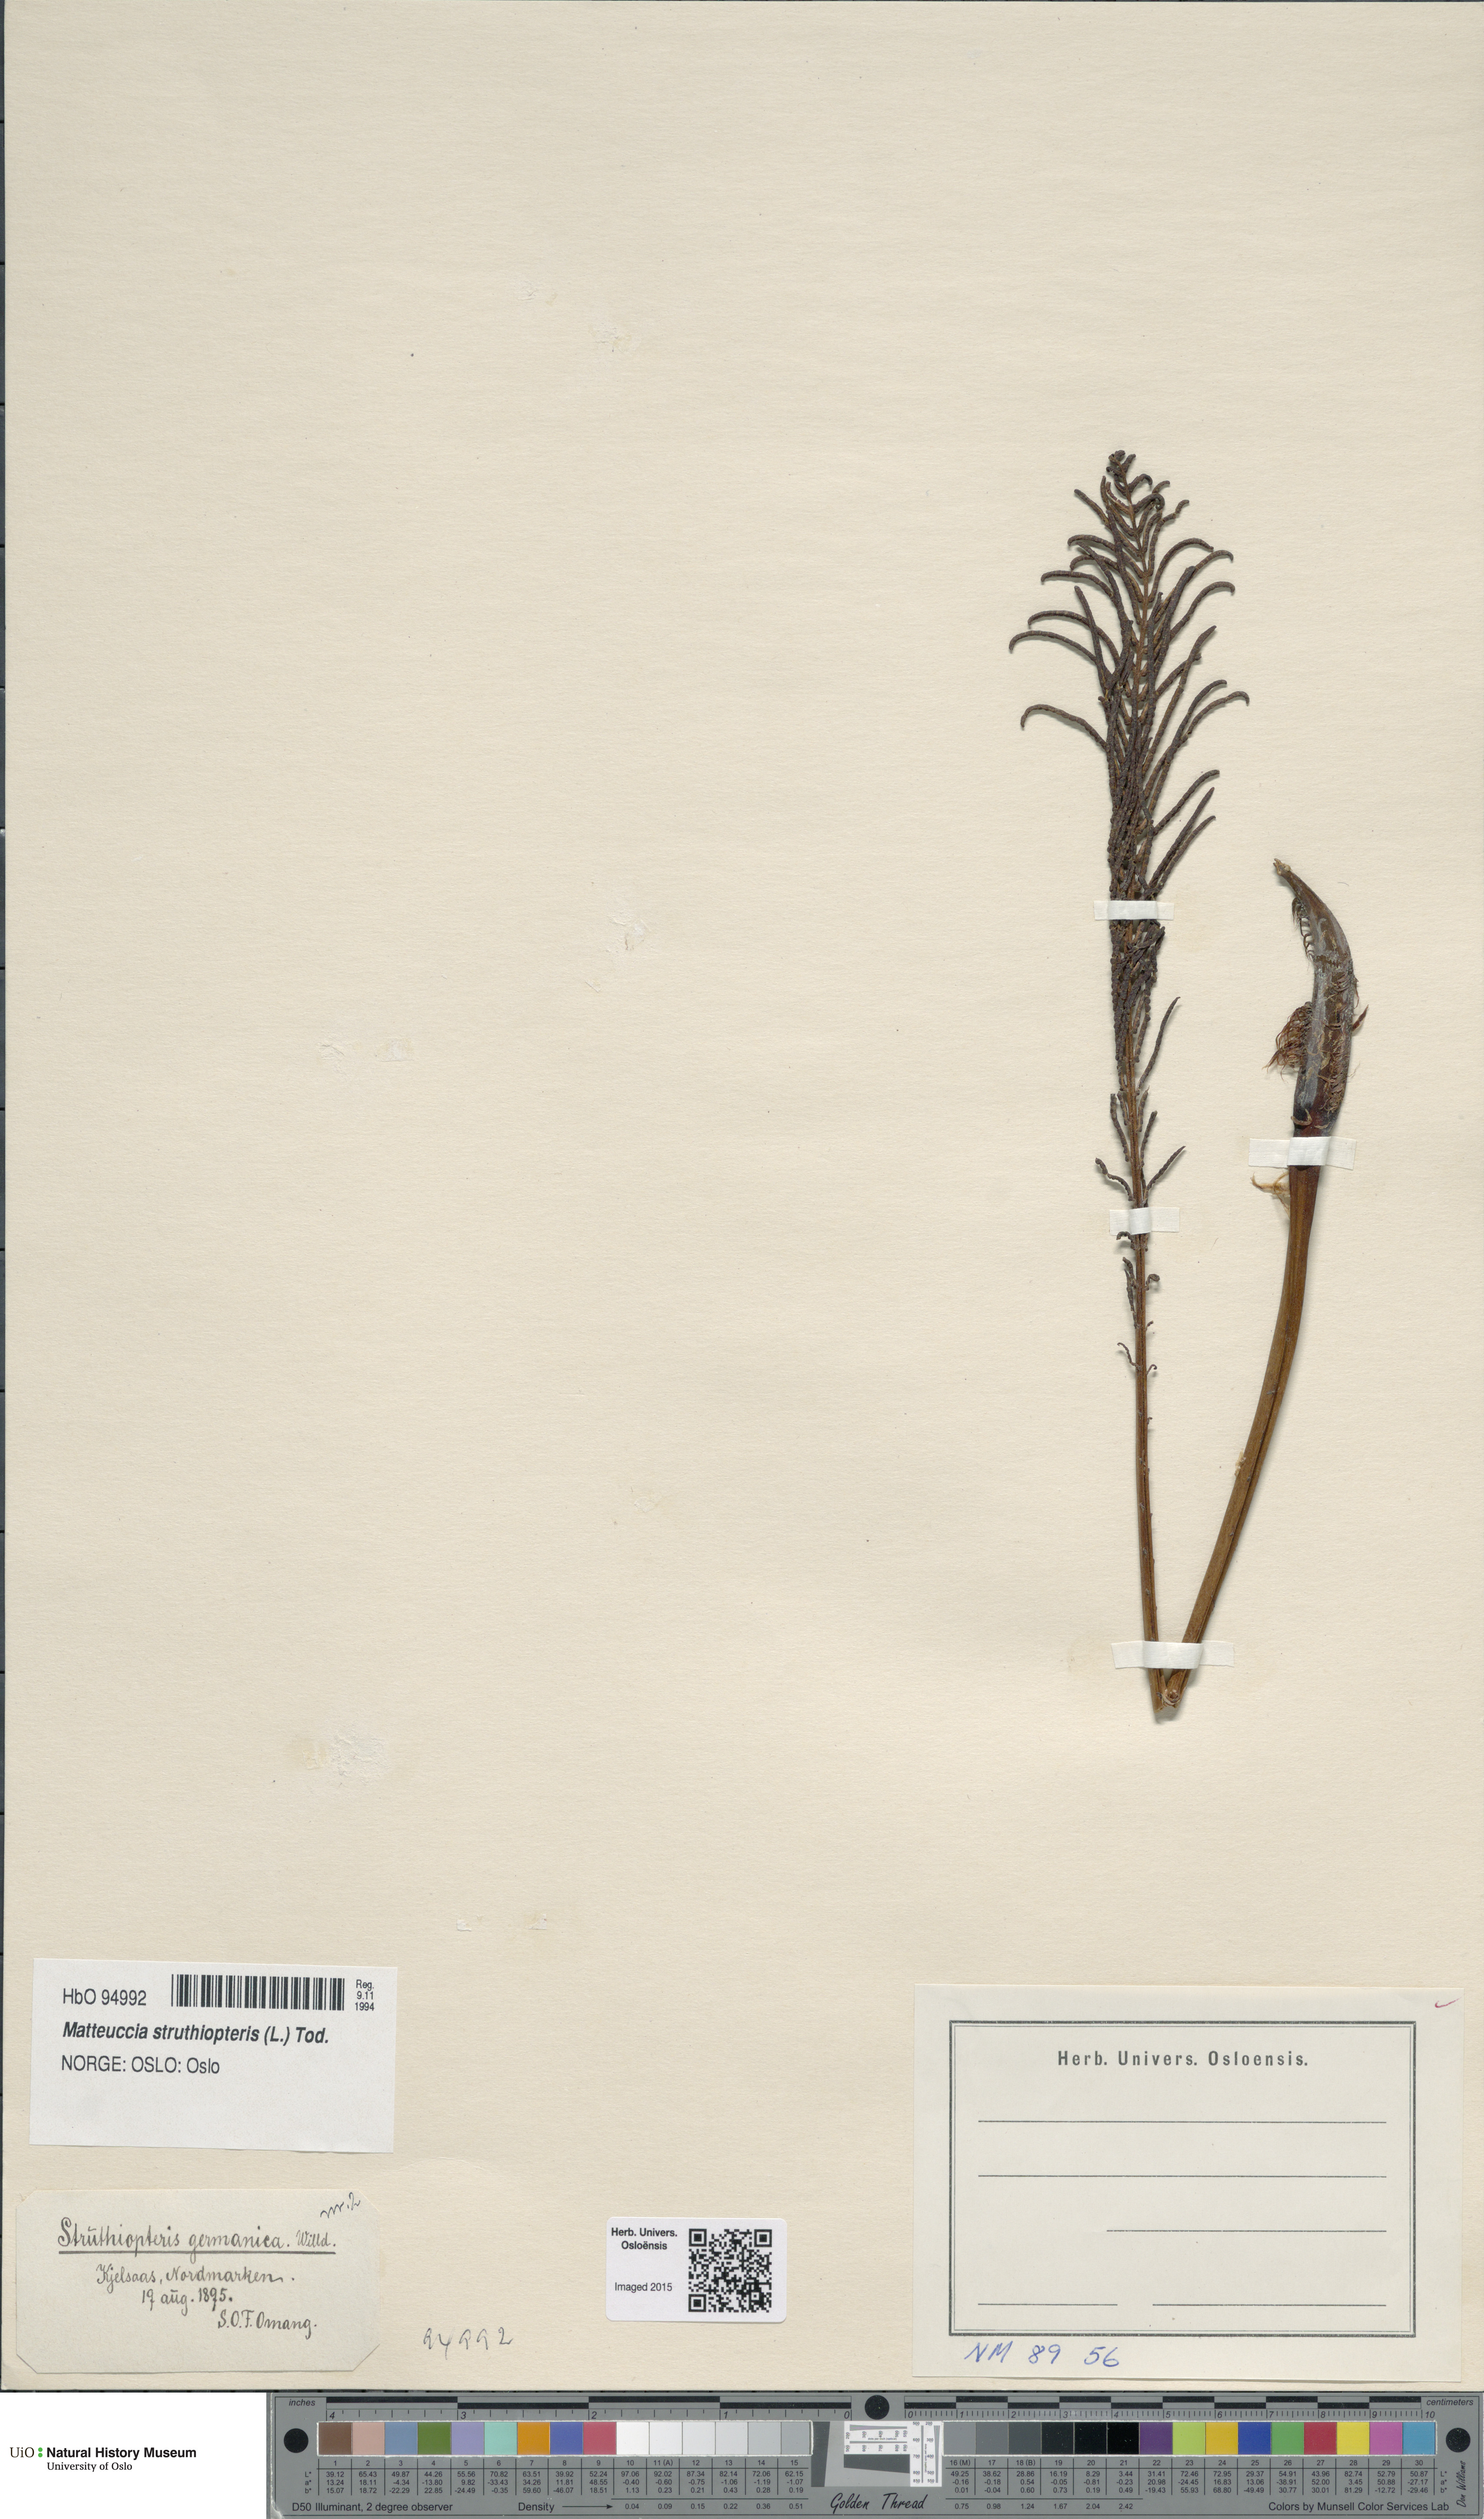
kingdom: Plantae
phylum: Tracheophyta
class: Polypodiopsida
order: Polypodiales
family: Onocleaceae
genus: Matteuccia
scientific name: Matteuccia struthiopteris
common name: Ostrich fern
